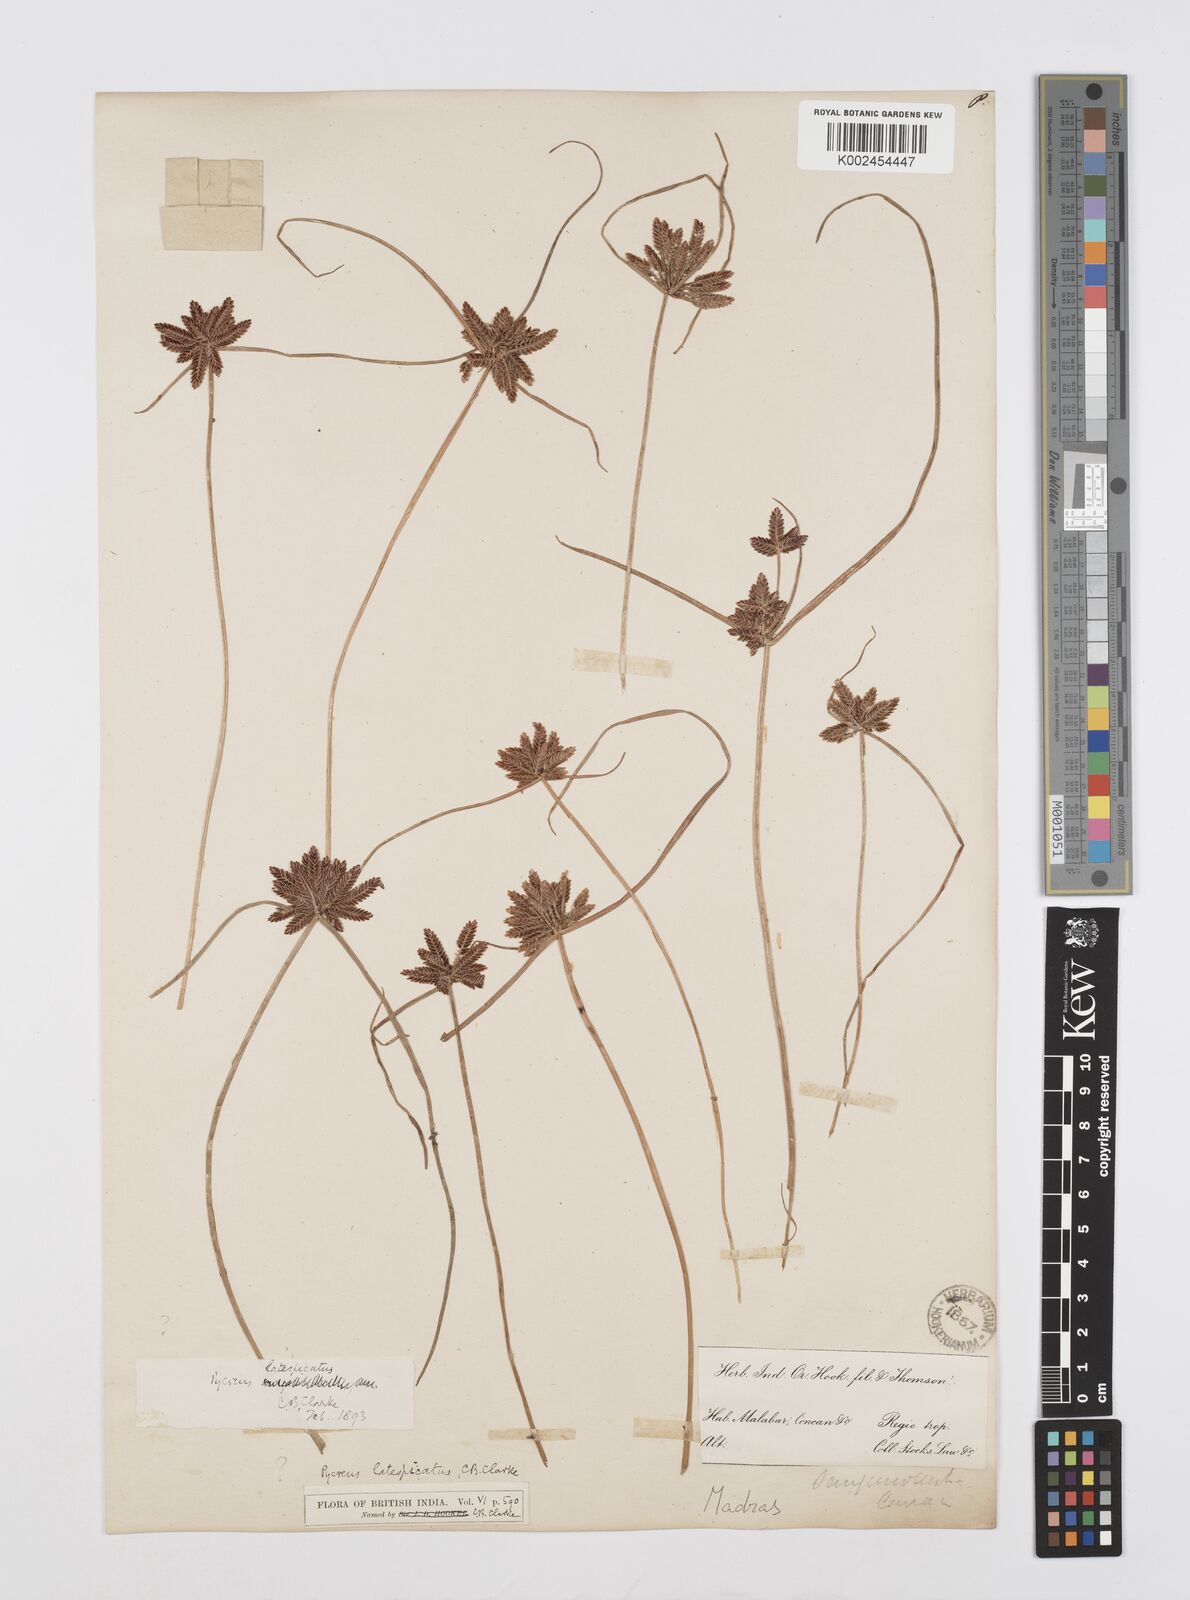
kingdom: Plantae
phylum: Tracheophyta
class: Liliopsida
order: Poales
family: Cyperaceae
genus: Cyperus
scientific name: Cyperus
